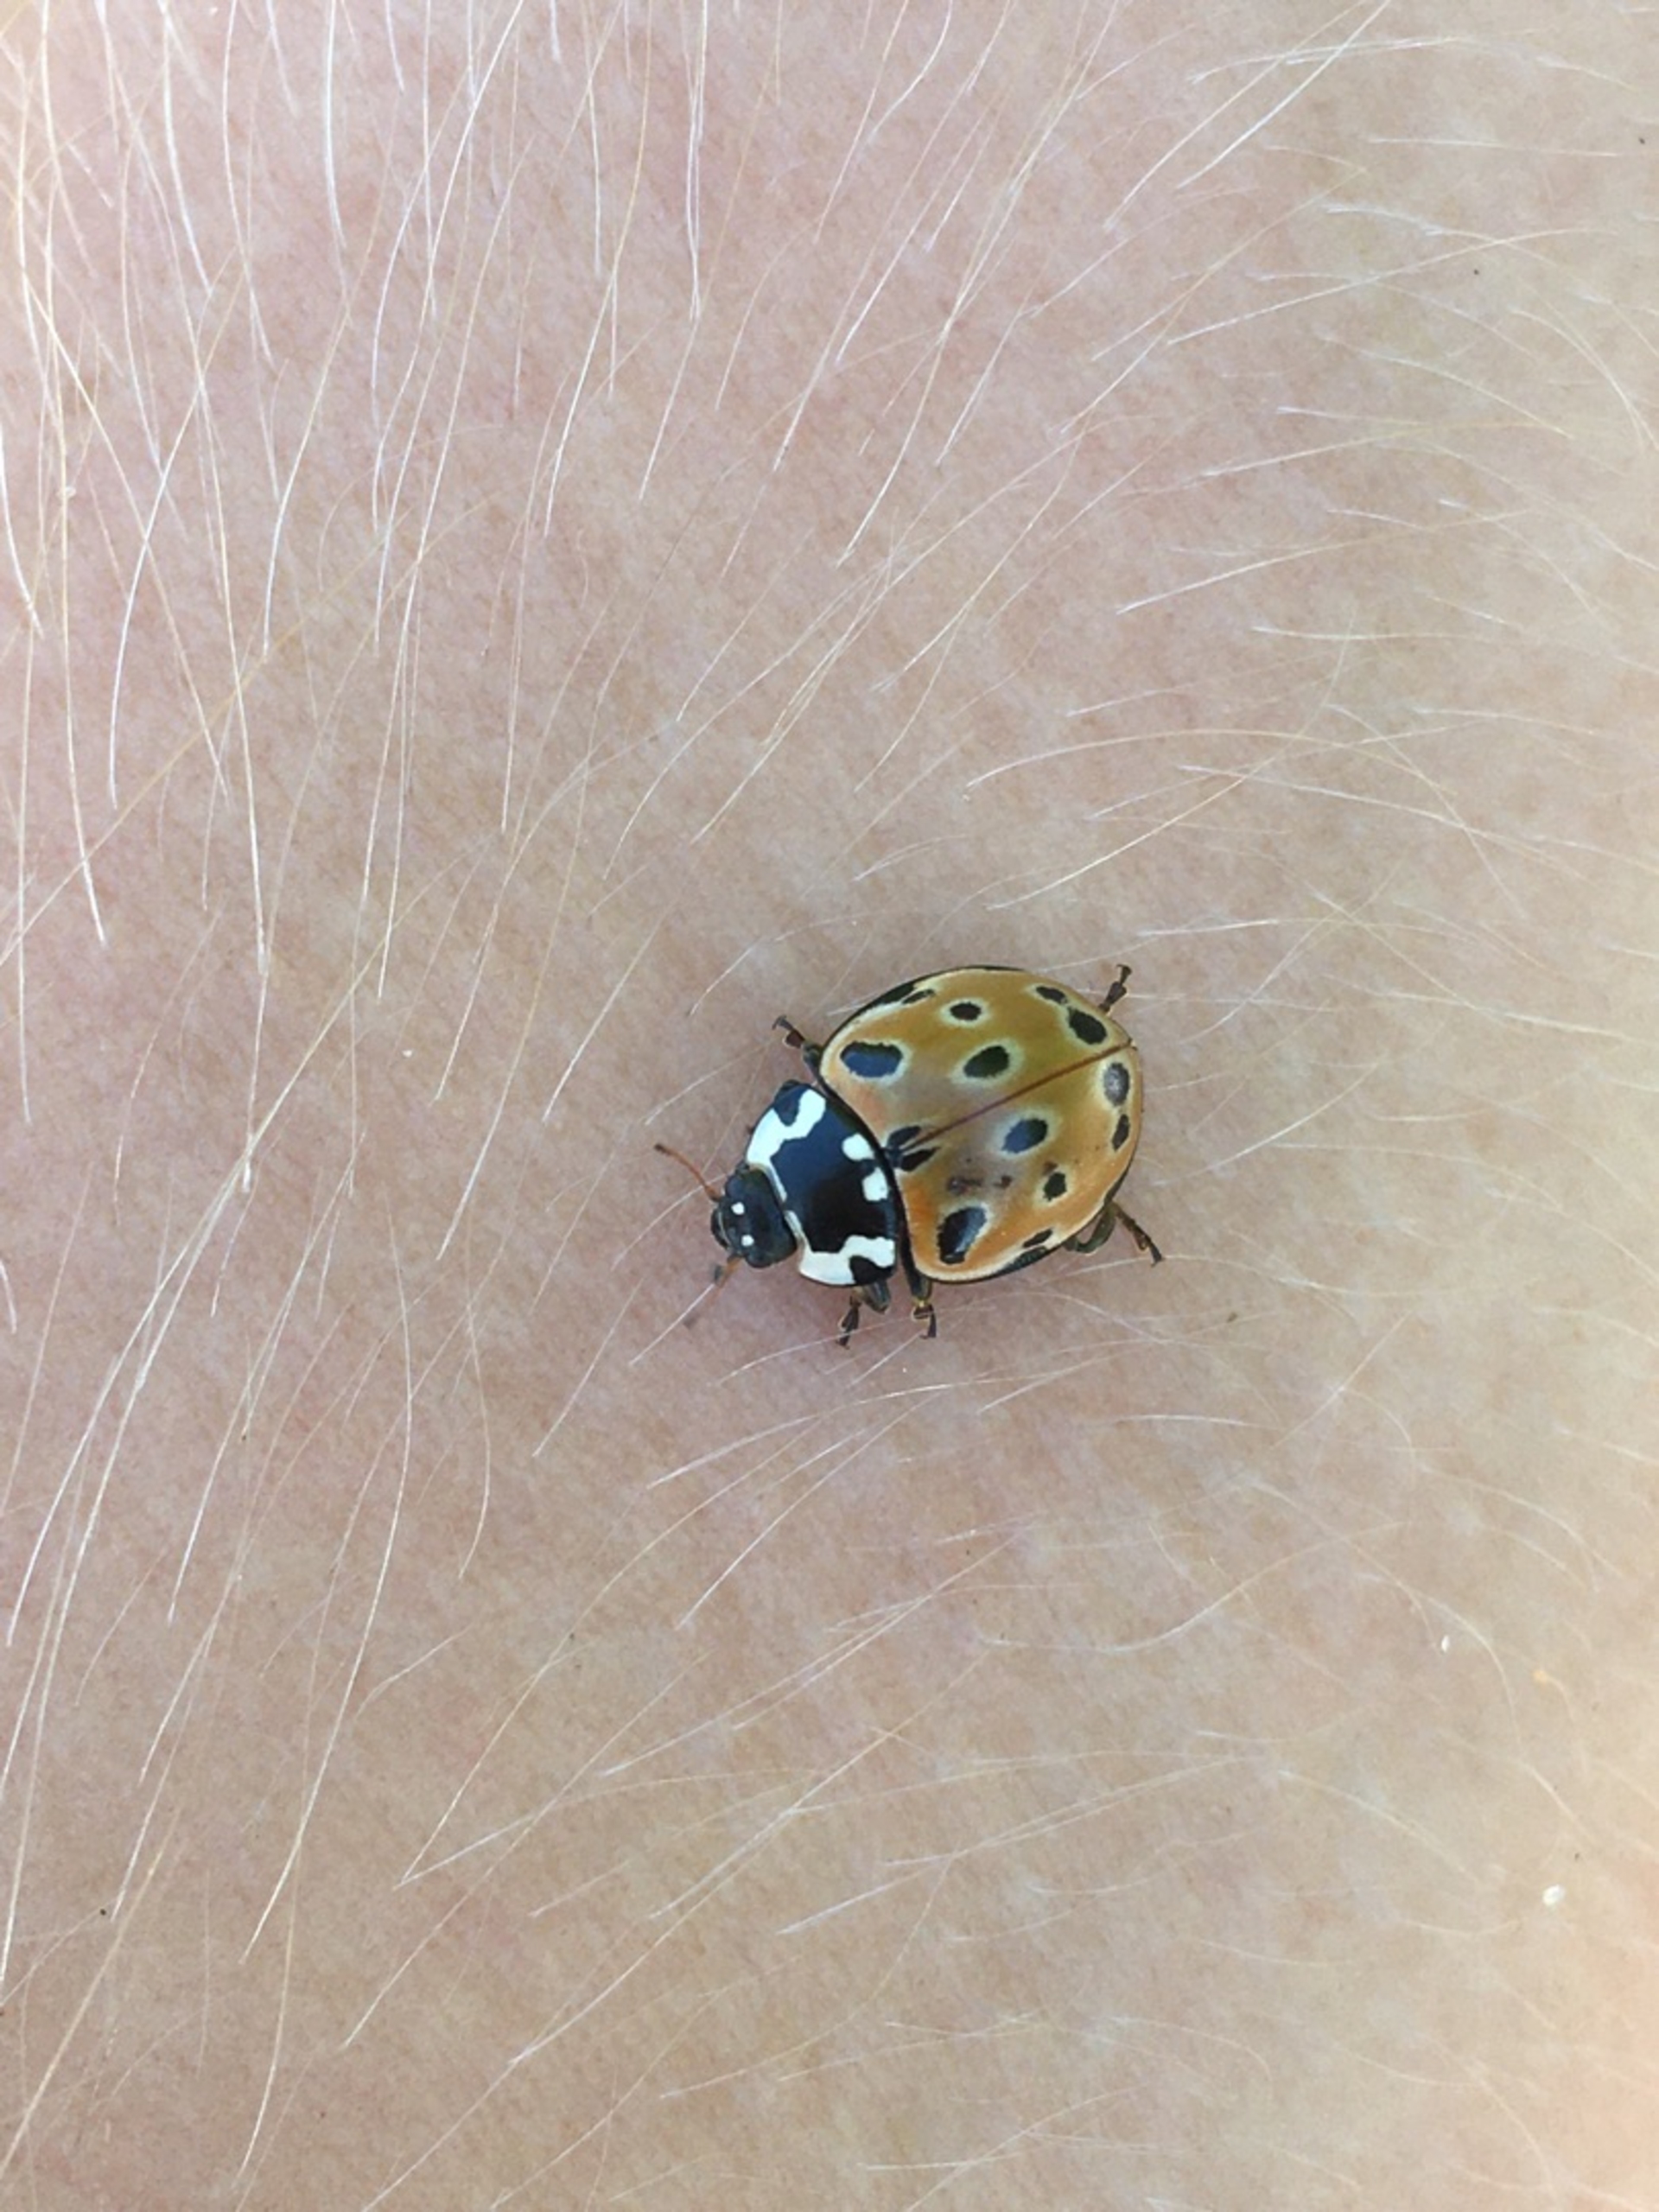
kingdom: Animalia
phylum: Arthropoda
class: Insecta
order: Coleoptera
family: Coccinellidae
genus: Anatis
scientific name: Anatis ocellata
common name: Øjeplettet mariehøne
